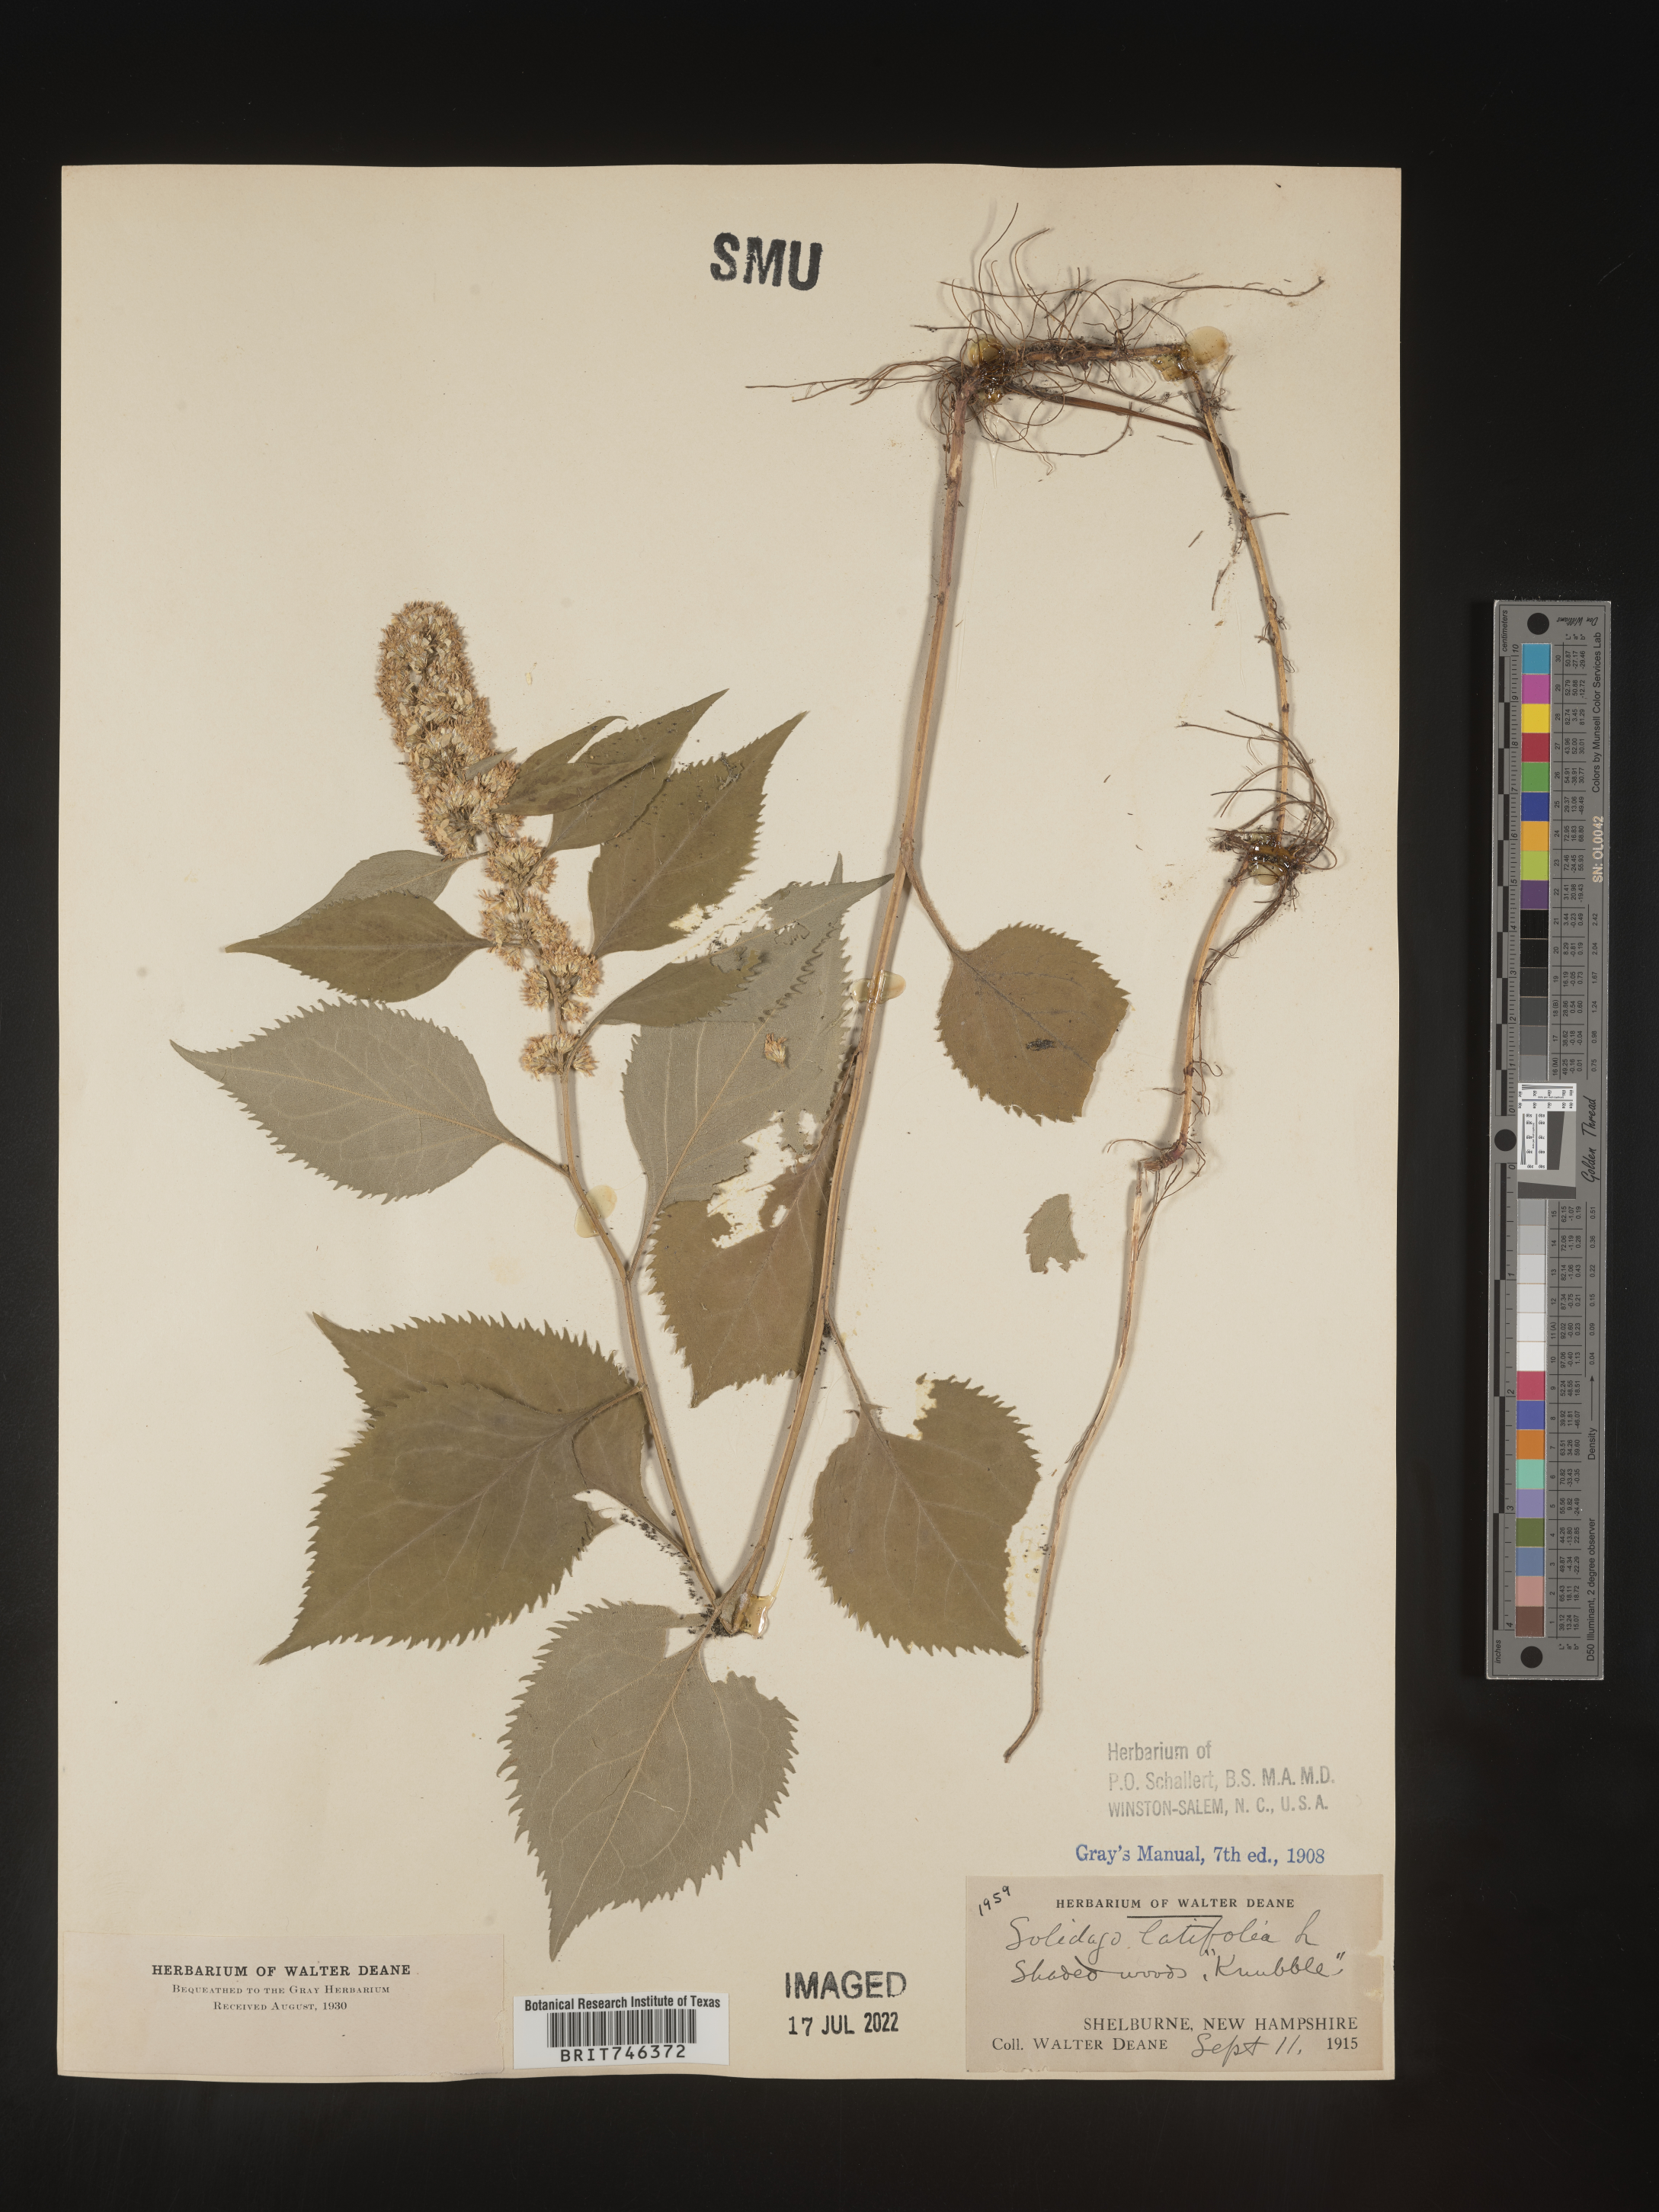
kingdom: Plantae
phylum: Tracheophyta
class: Magnoliopsida
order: Asterales
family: Asteraceae
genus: Solidago
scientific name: Solidago virgaurea
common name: Goldenrod
